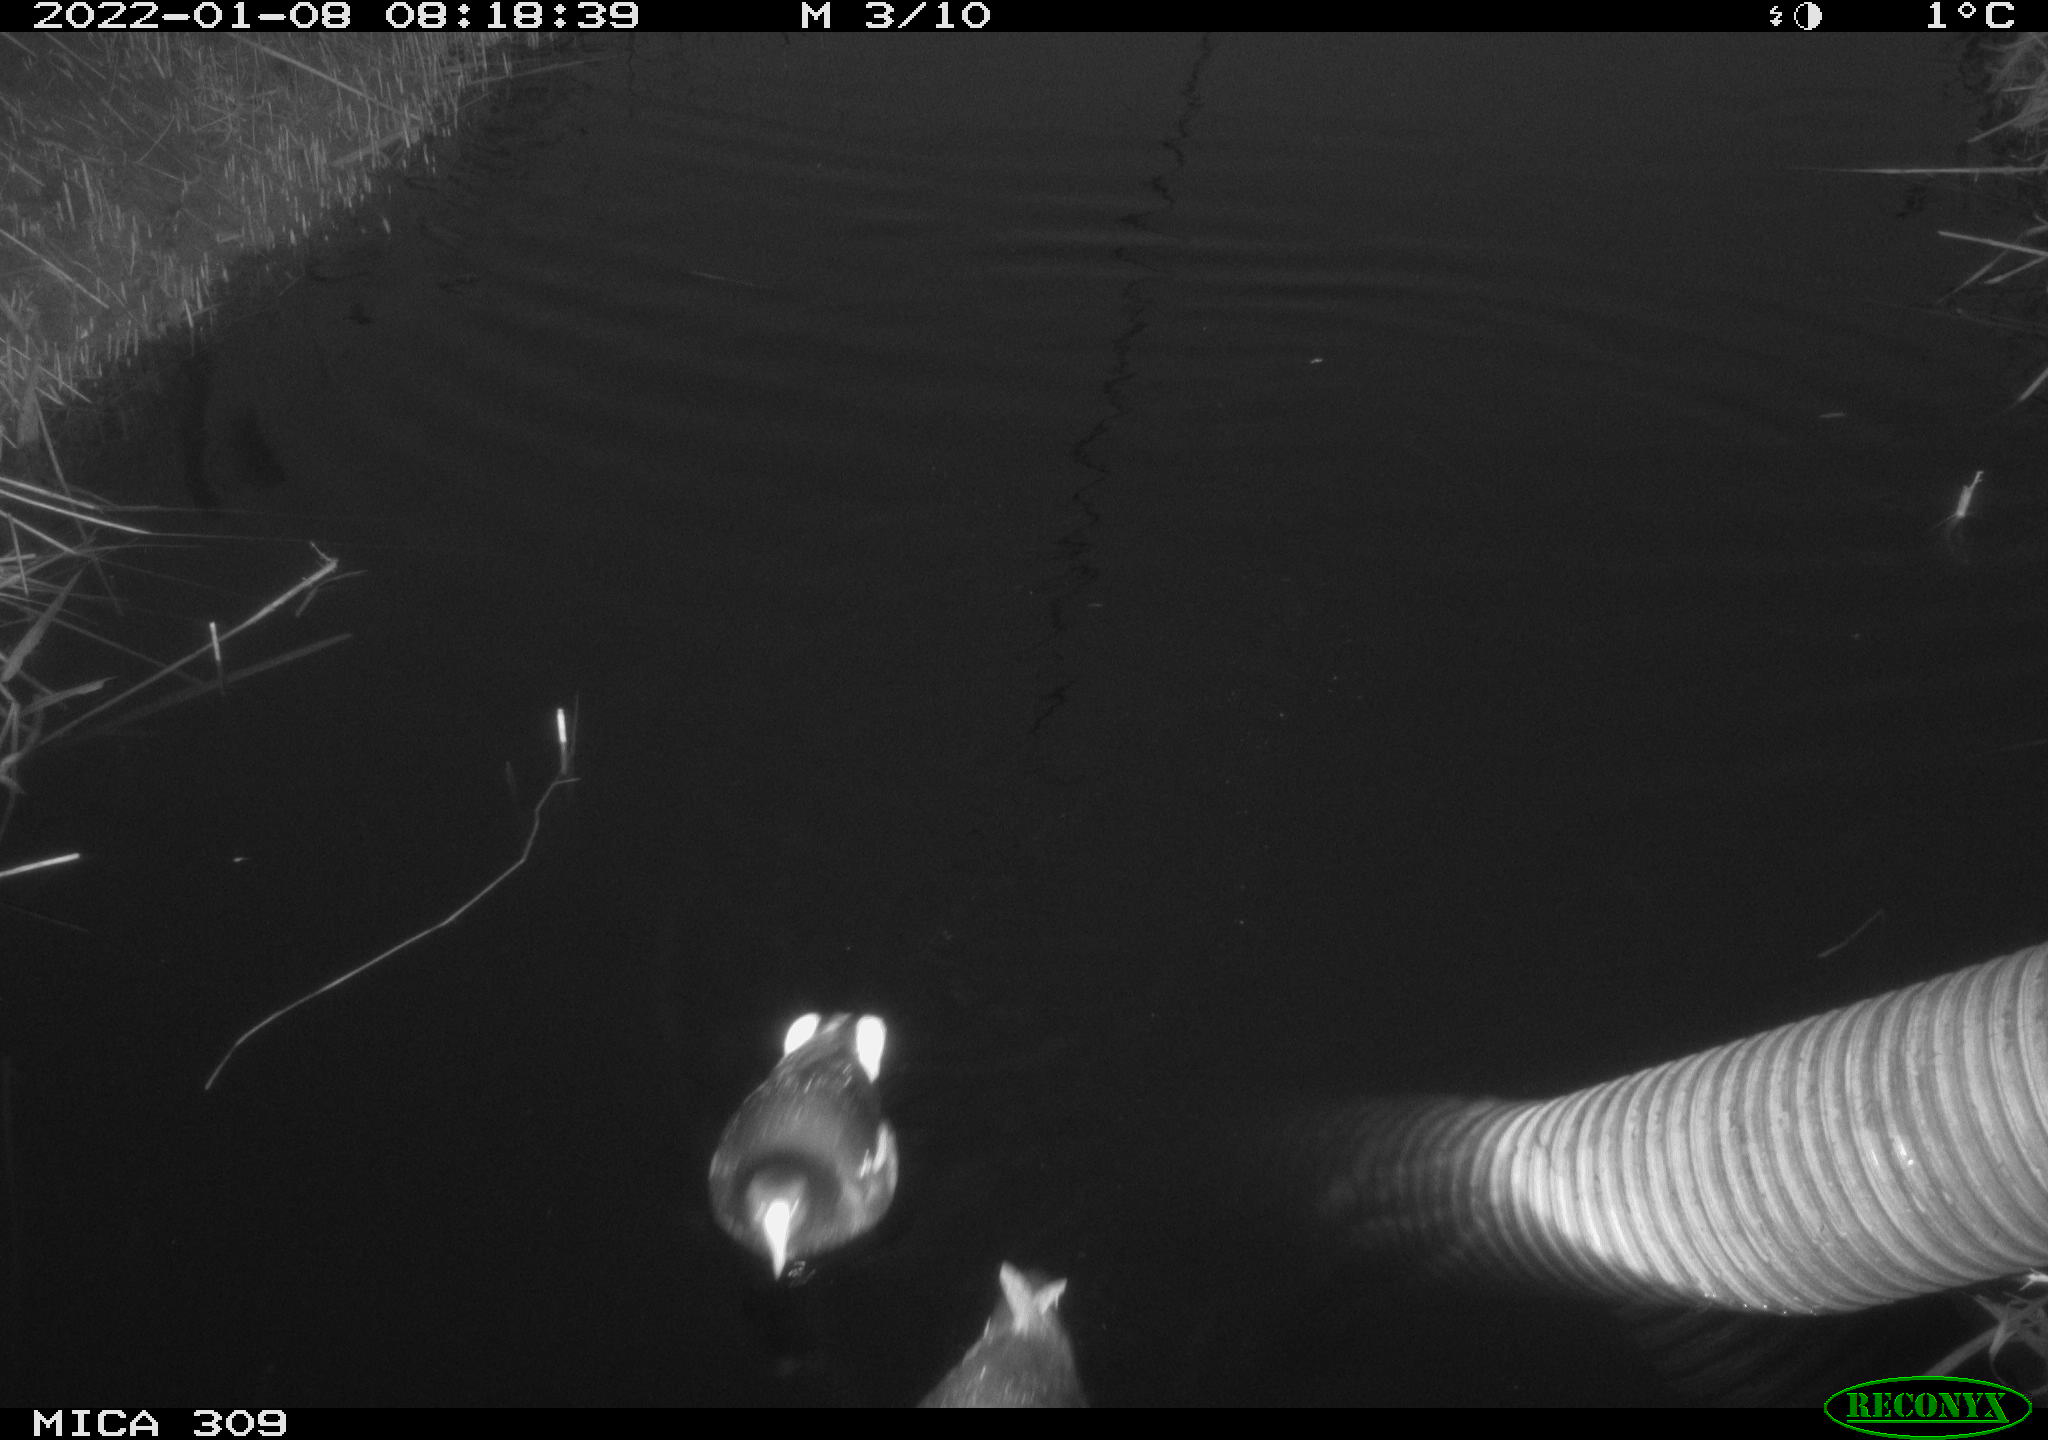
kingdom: Animalia
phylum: Chordata
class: Aves
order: Anseriformes
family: Anatidae
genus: Anas
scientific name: Anas
